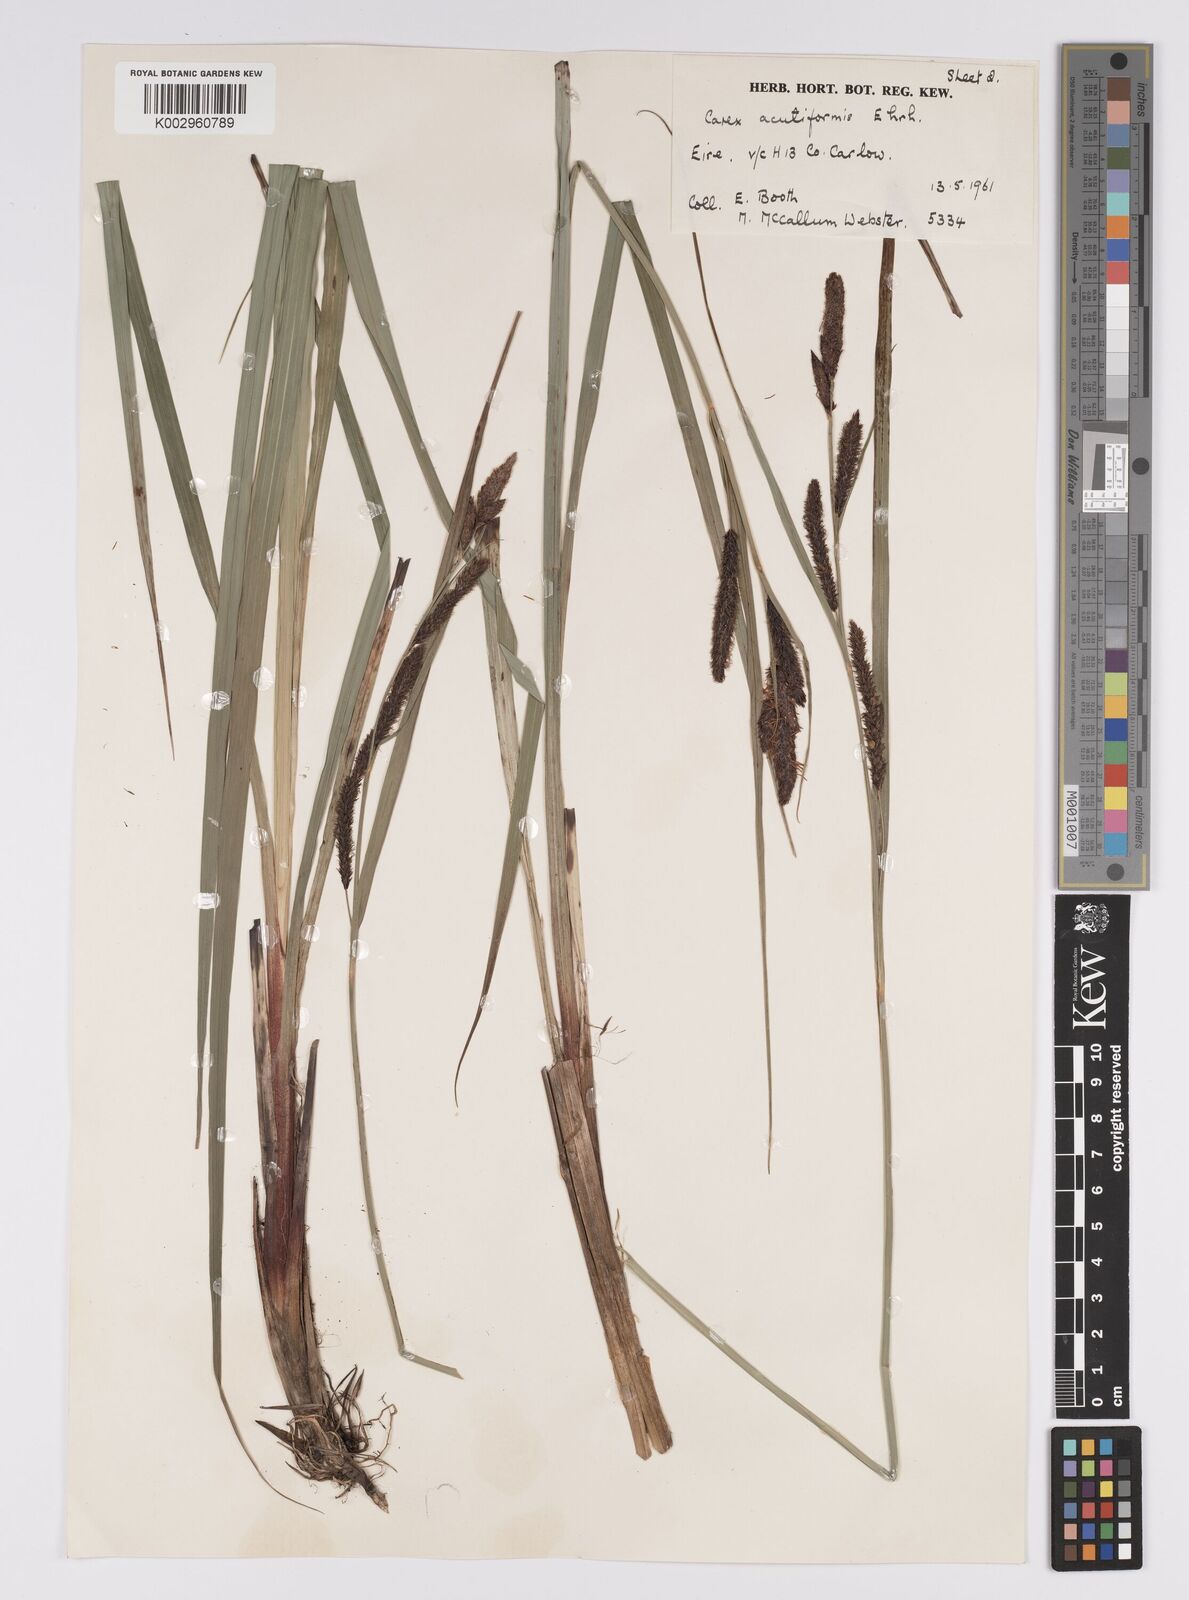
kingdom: Plantae
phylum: Tracheophyta
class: Liliopsida
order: Poales
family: Cyperaceae
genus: Carex
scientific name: Carex acutiformis
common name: Lesser pond-sedge
